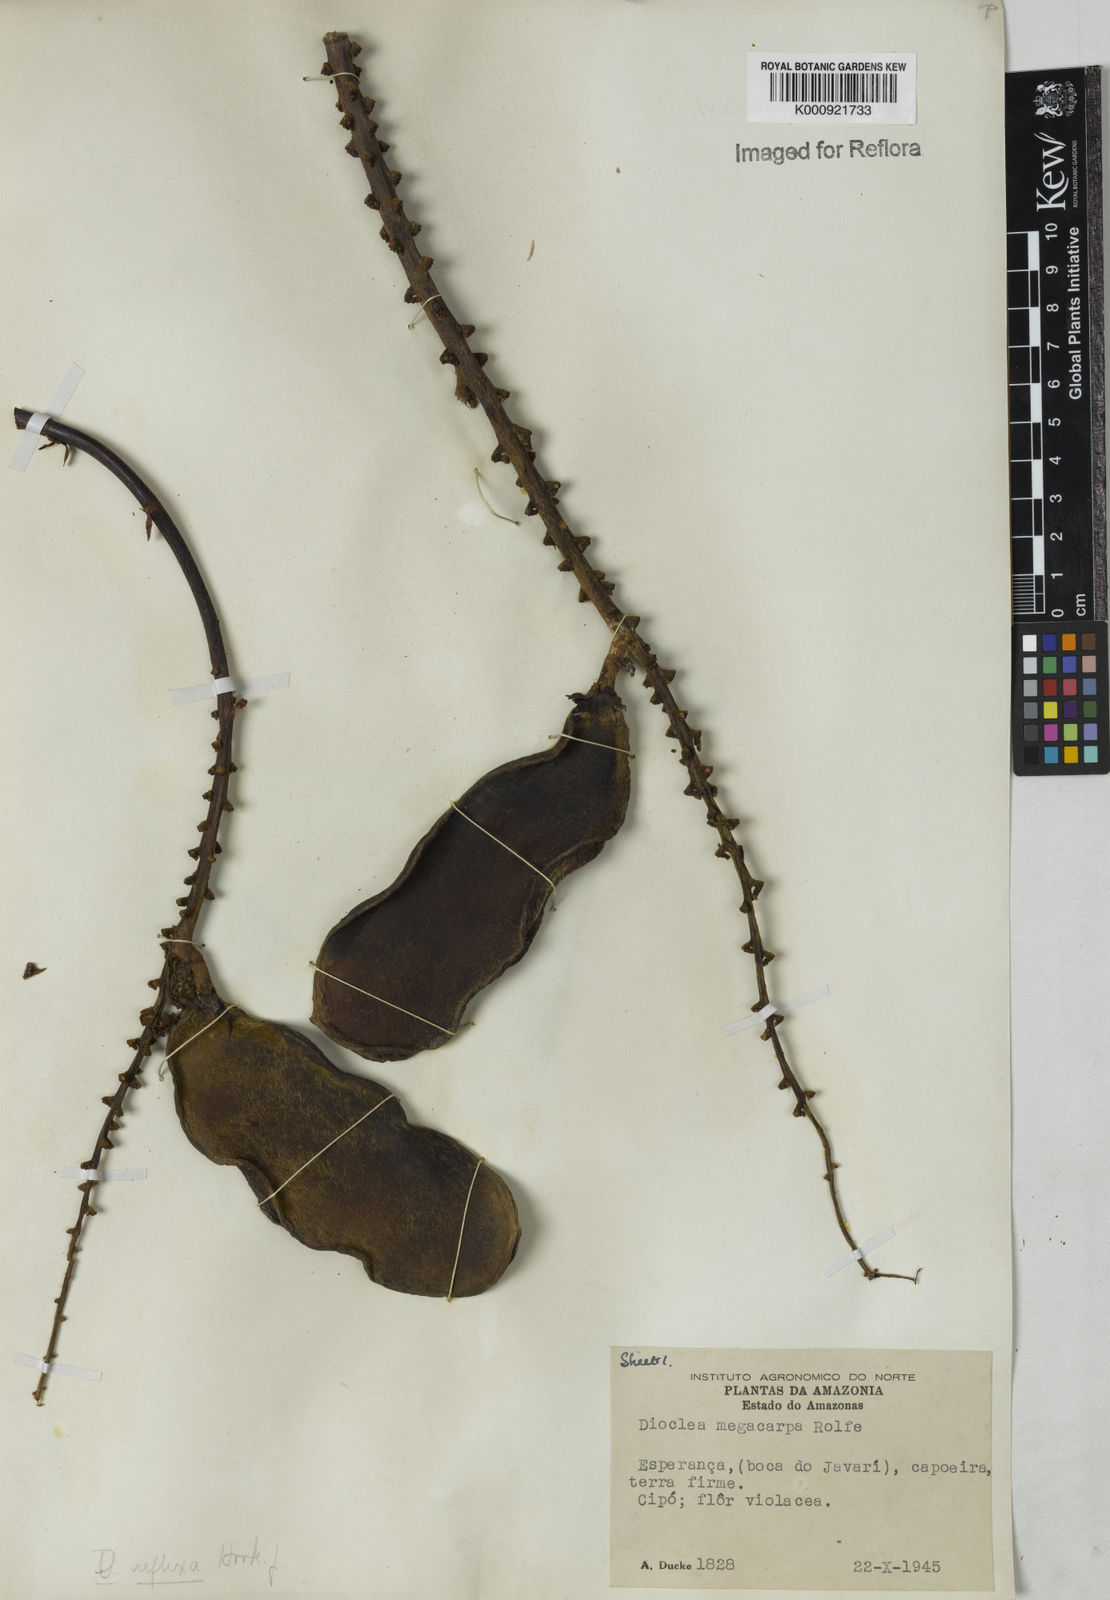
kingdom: Plantae
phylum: Tracheophyta
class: Magnoliopsida
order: Fabales
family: Fabaceae
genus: Macropsychanthus
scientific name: Macropsychanthus sclerocarpus
